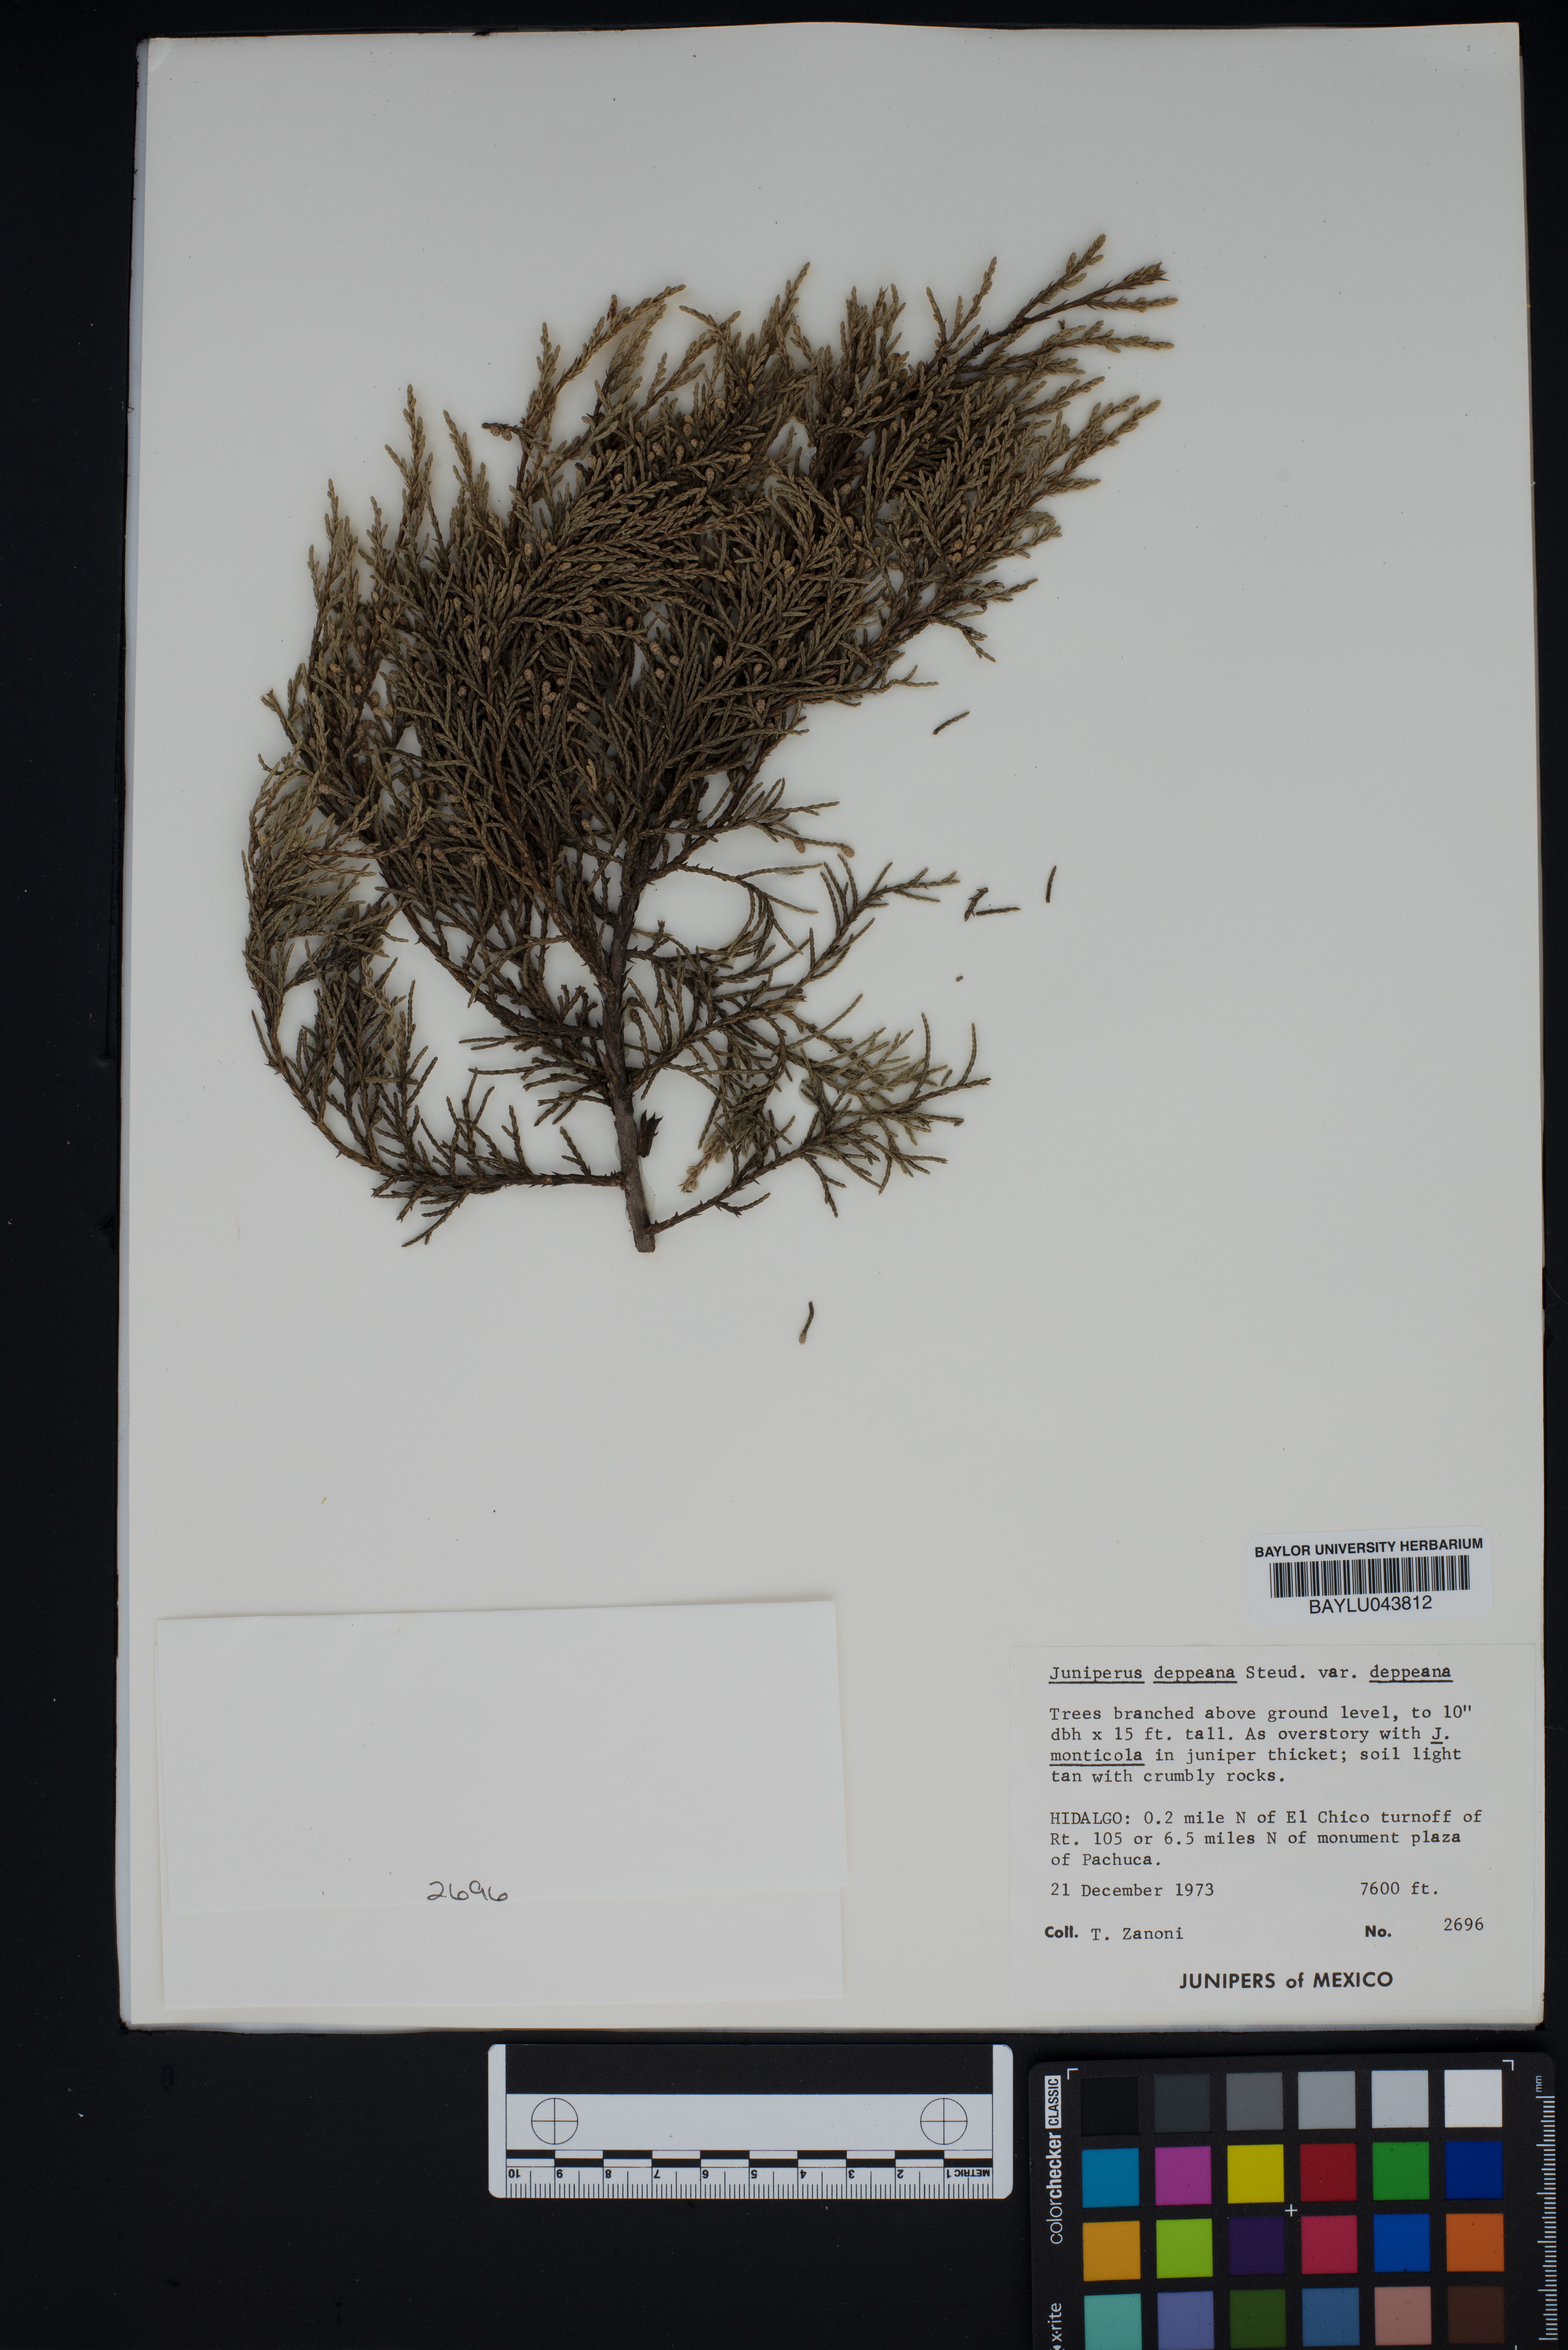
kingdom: Plantae
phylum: Tracheophyta
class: Pinopsida
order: Pinales
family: Cupressaceae
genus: Juniperus
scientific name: Juniperus deppeana
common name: Alligator juniper
